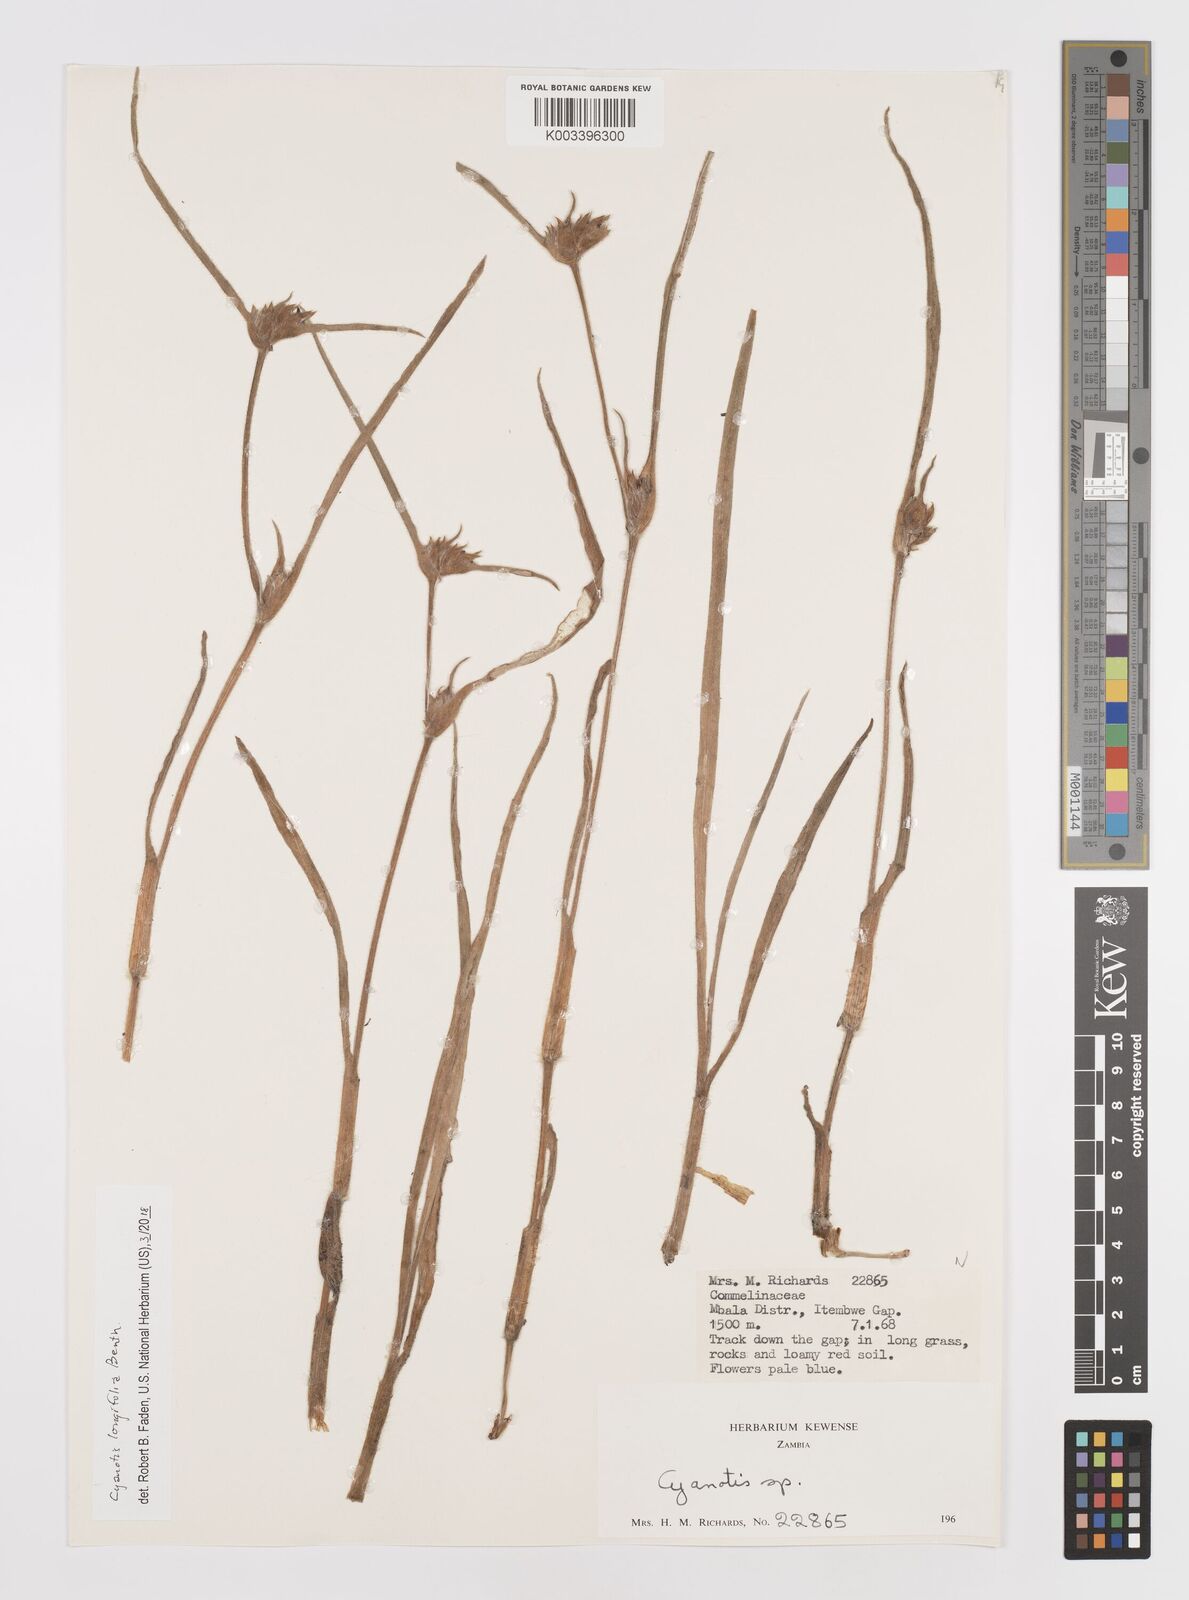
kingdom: Plantae
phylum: Tracheophyta
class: Liliopsida
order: Commelinales
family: Commelinaceae
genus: Cyanotis
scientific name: Cyanotis longifolia
